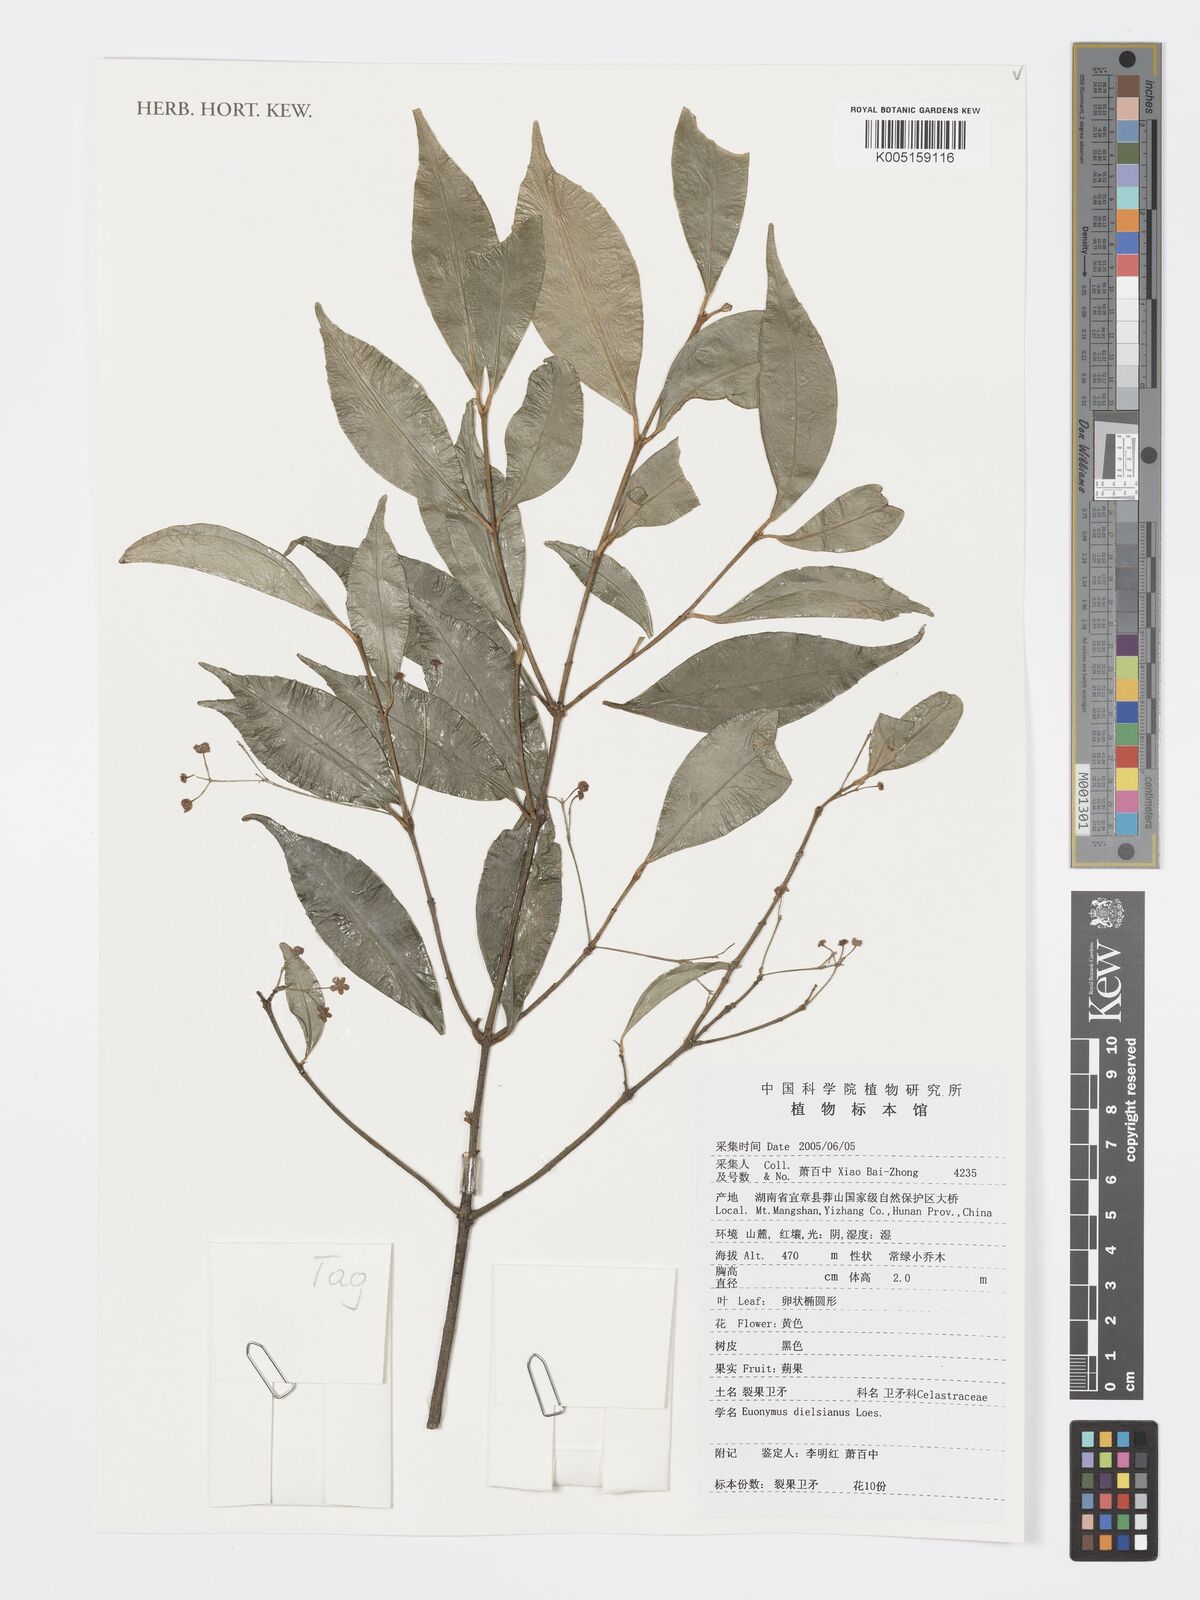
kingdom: Plantae
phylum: Tracheophyta
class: Magnoliopsida
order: Celastrales
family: Celastraceae
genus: Euonymus
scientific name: Euonymus dielsianus
